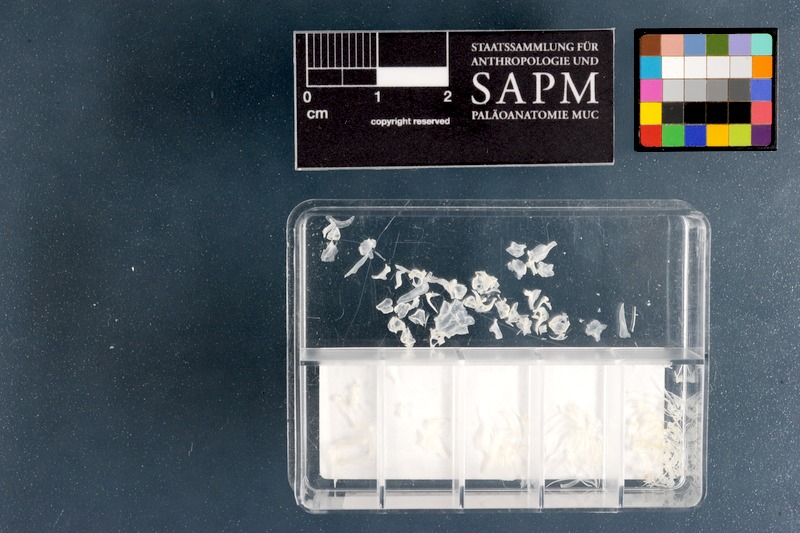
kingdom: Animalia
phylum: Chordata
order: Cypriniformes
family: Cyprinidae
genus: Phoxinus
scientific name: Phoxinus phoxinus
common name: Minnow
